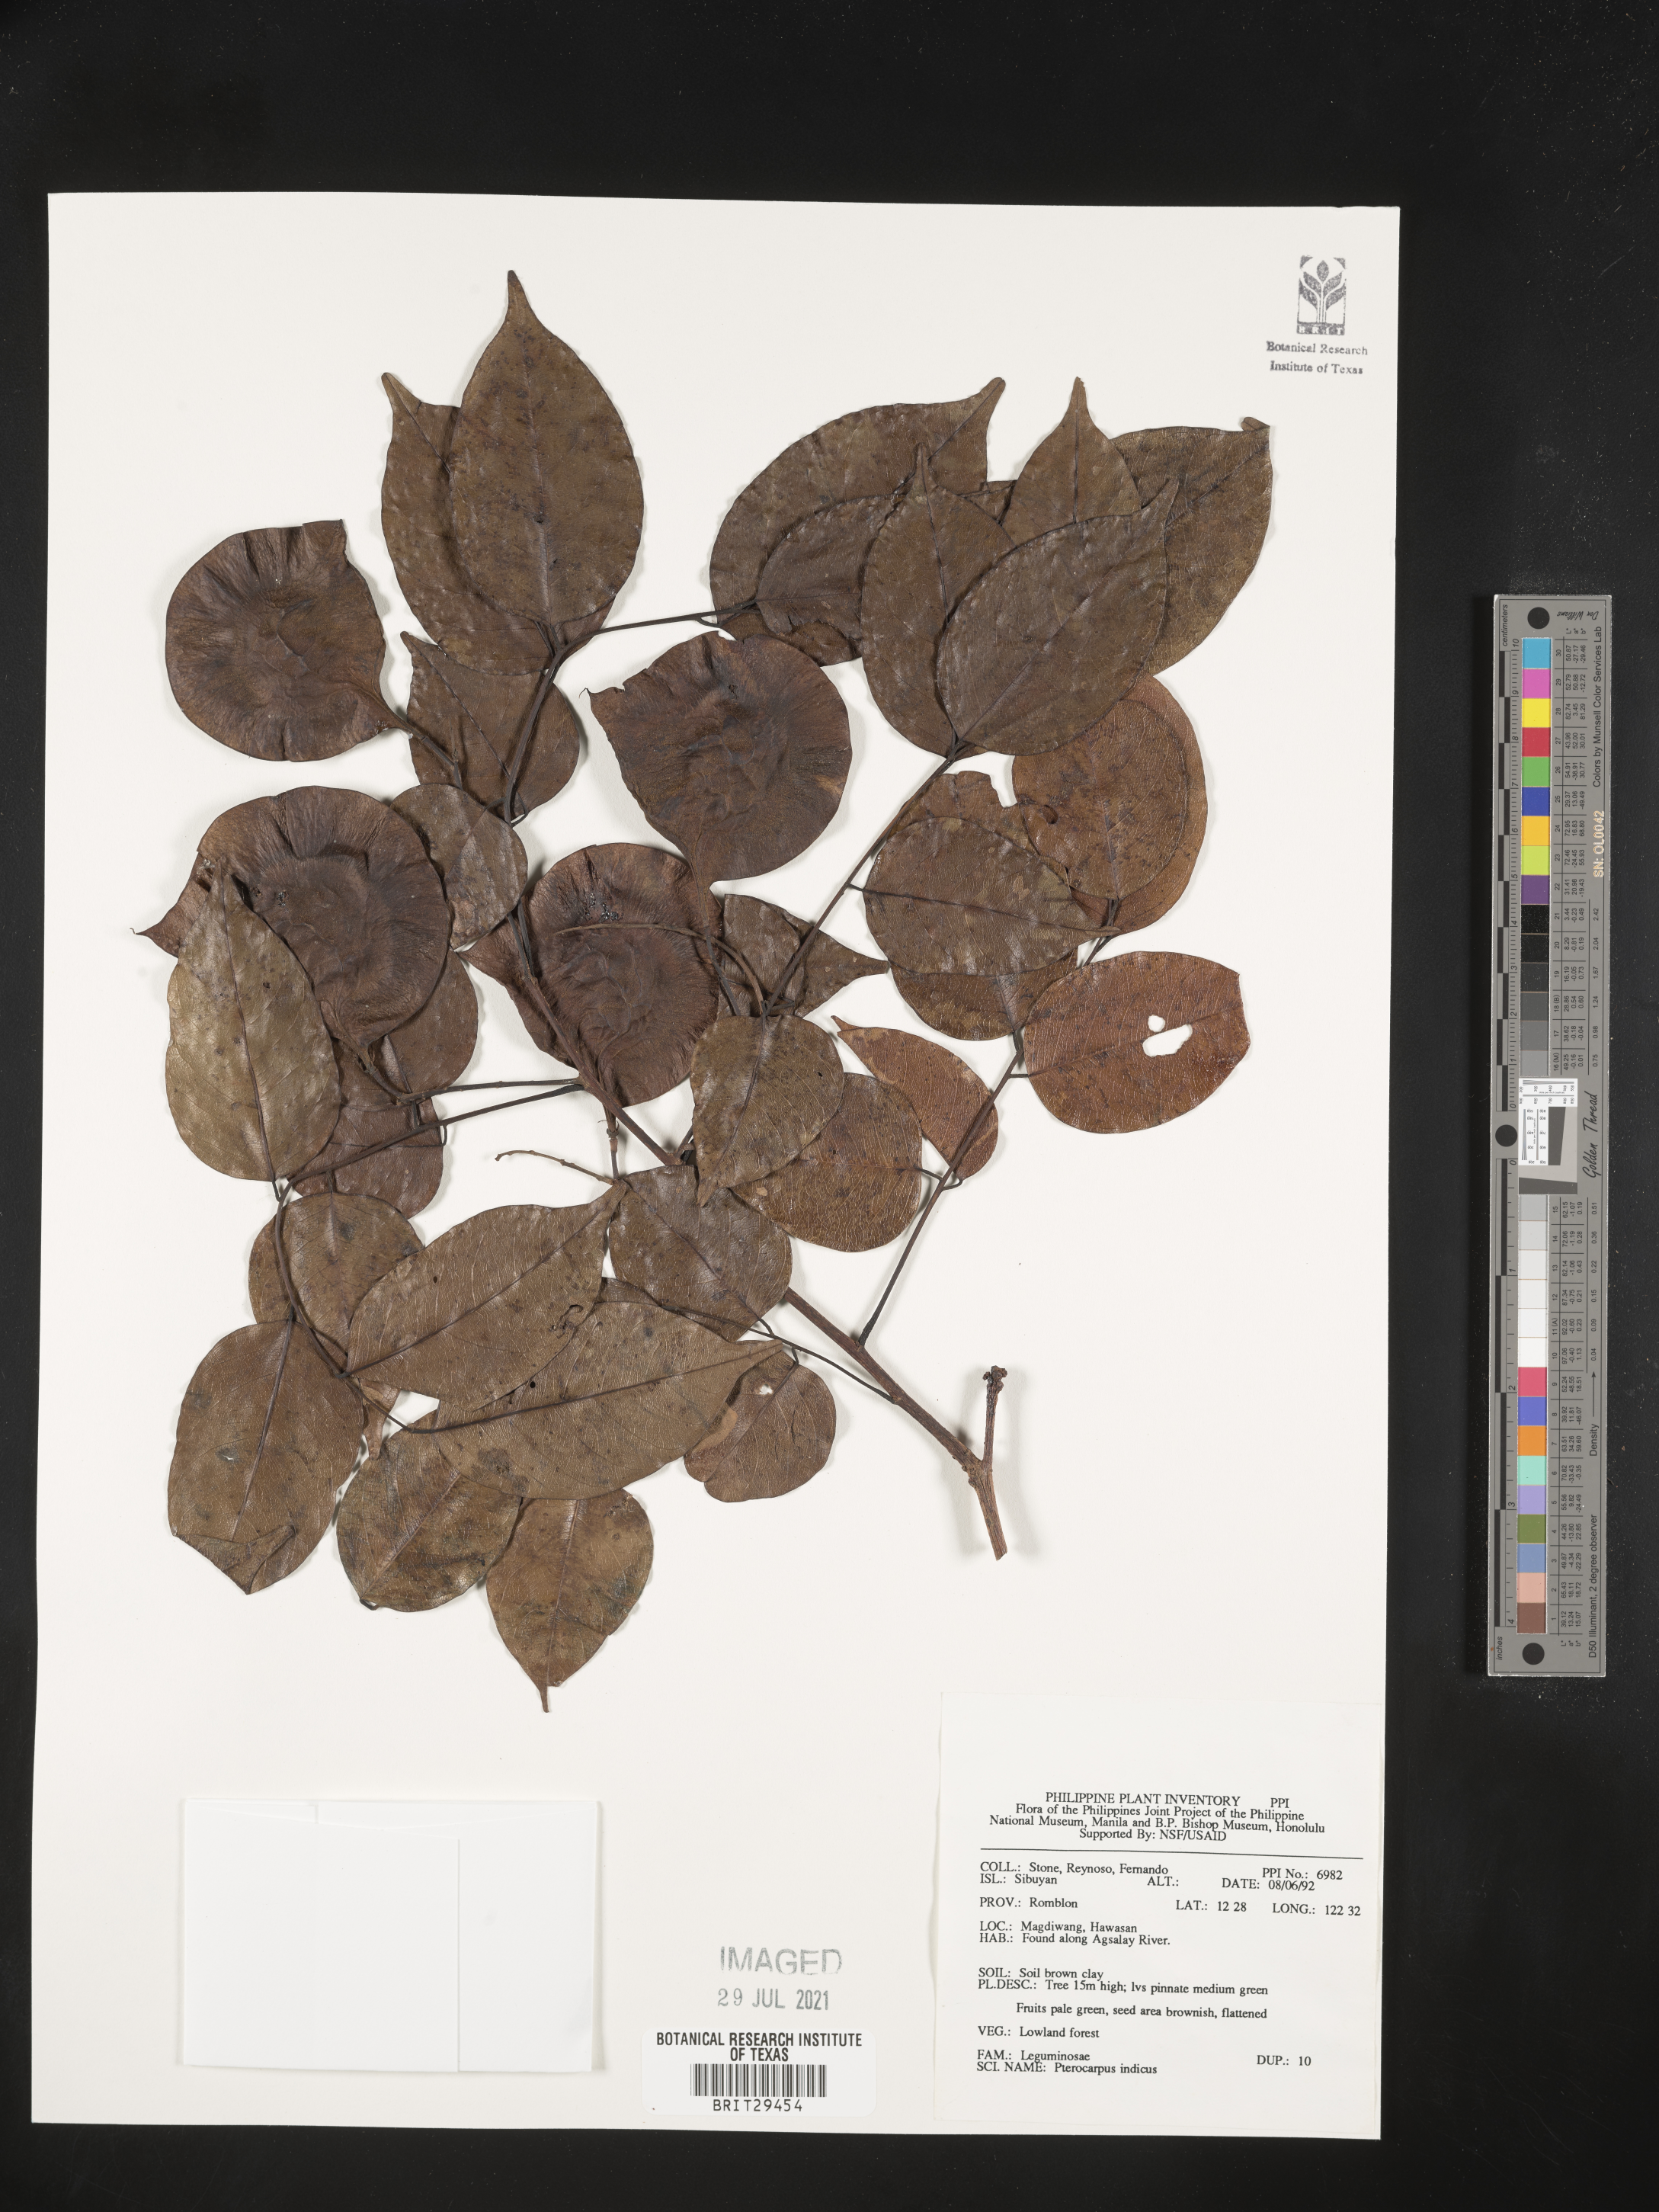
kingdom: Plantae
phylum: Tracheophyta
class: Magnoliopsida
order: Fabales
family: Fabaceae
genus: Pterocarpus
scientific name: Pterocarpus indicus
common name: Burmese rosewood
